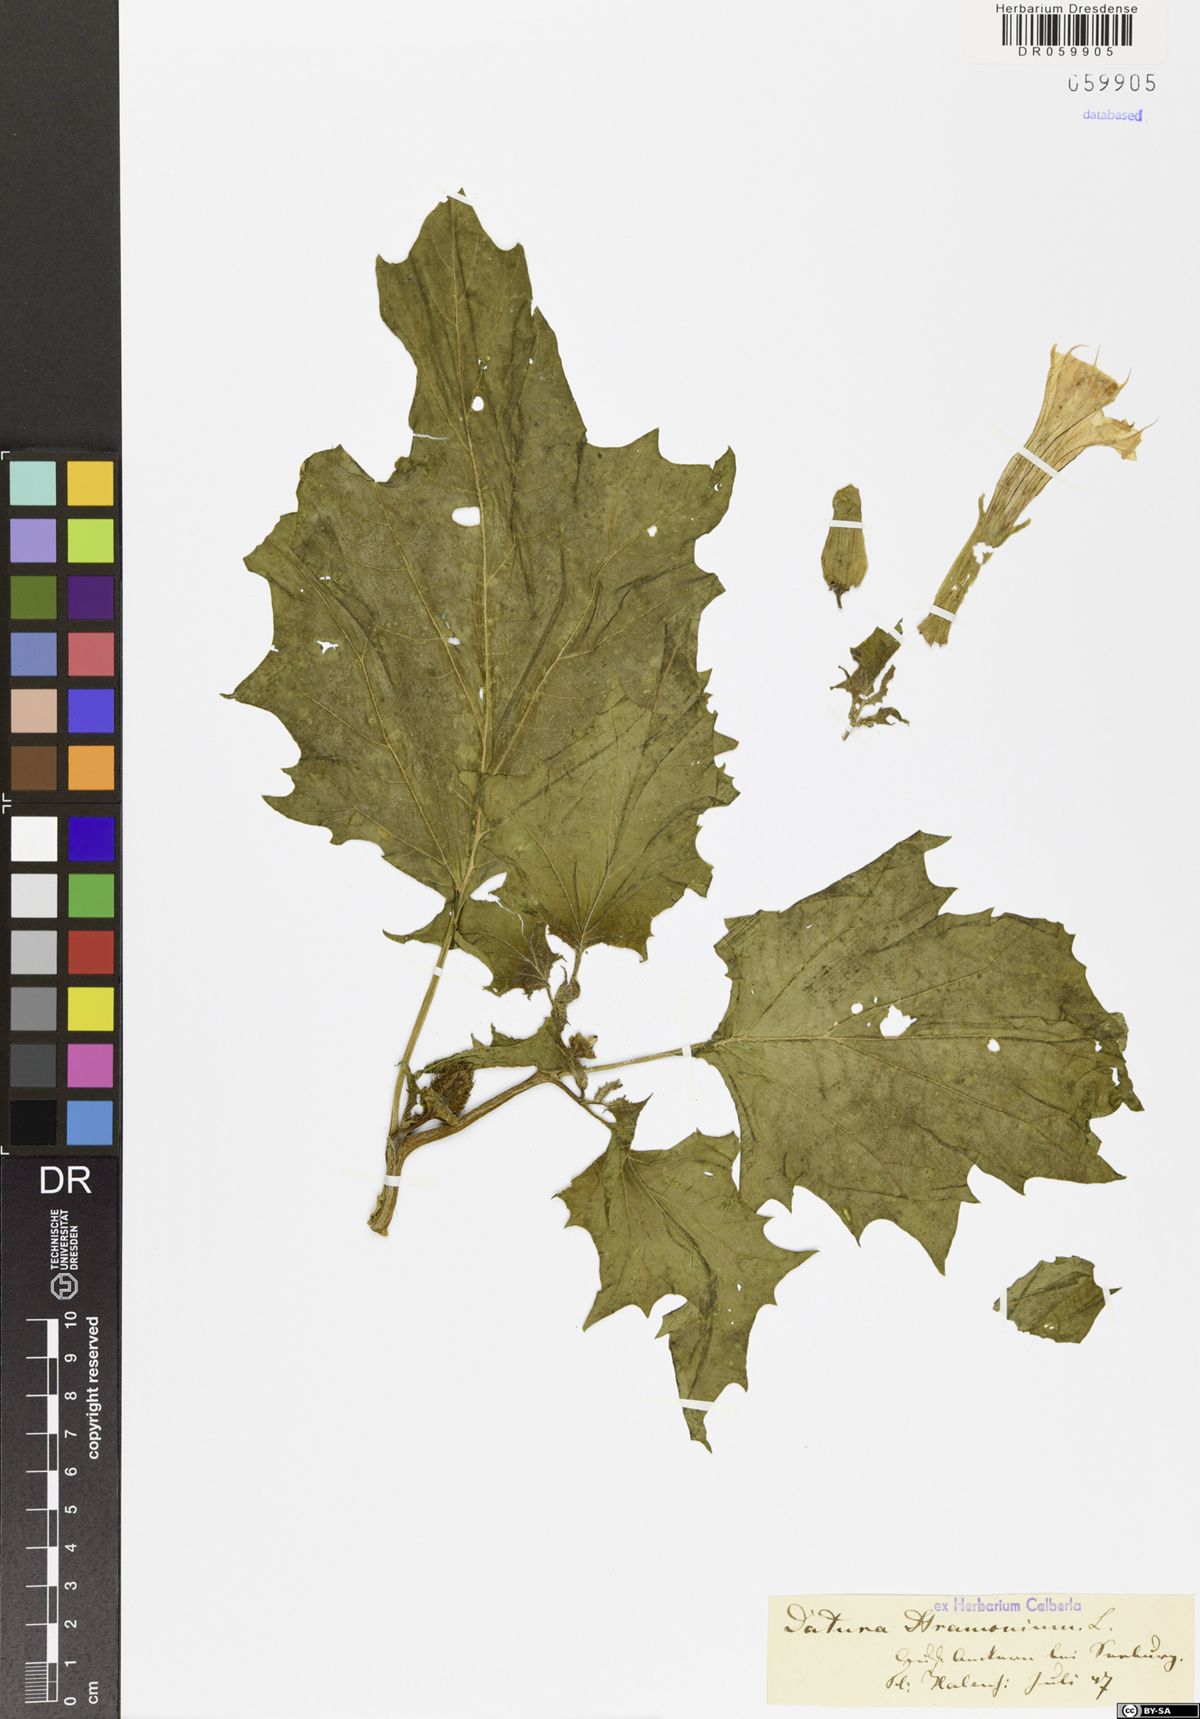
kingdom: Plantae
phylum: Tracheophyta
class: Magnoliopsida
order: Solanales
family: Solanaceae
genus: Datura
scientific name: Datura stramonium
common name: Thorn-apple
